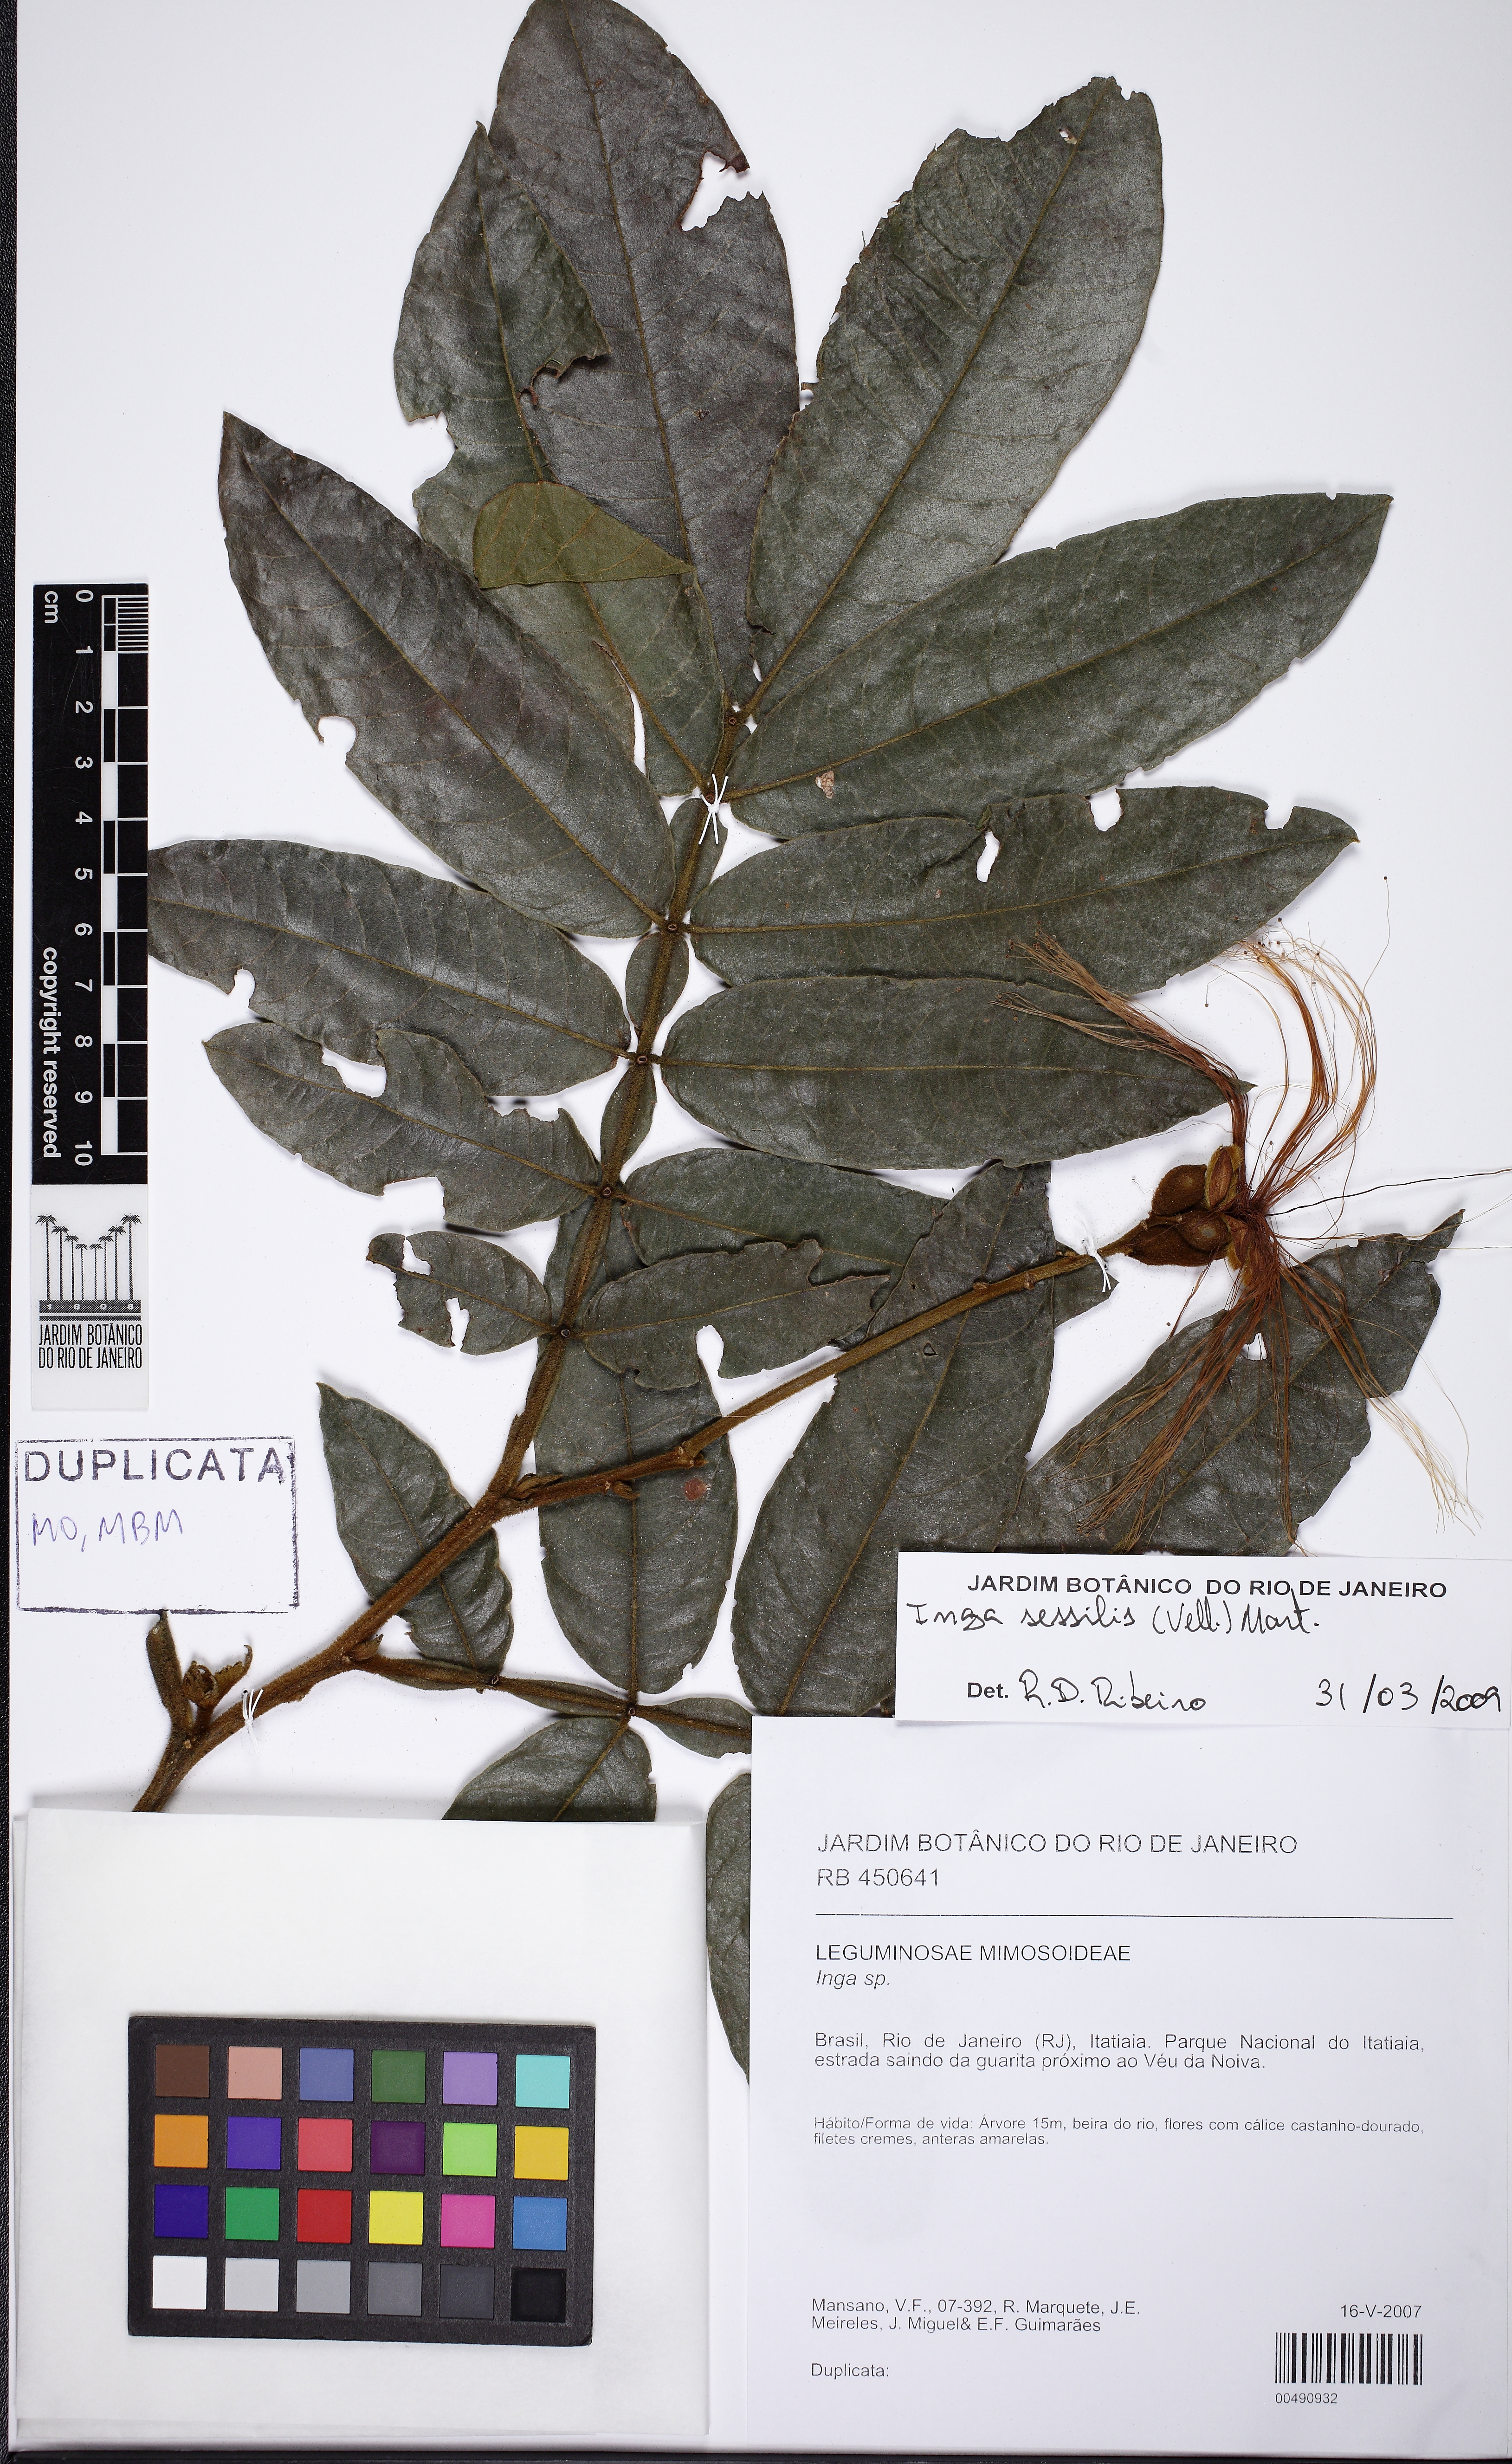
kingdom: Plantae
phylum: Tracheophyta
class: Magnoliopsida
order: Fabales
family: Fabaceae
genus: Inga
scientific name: Inga sessilis
